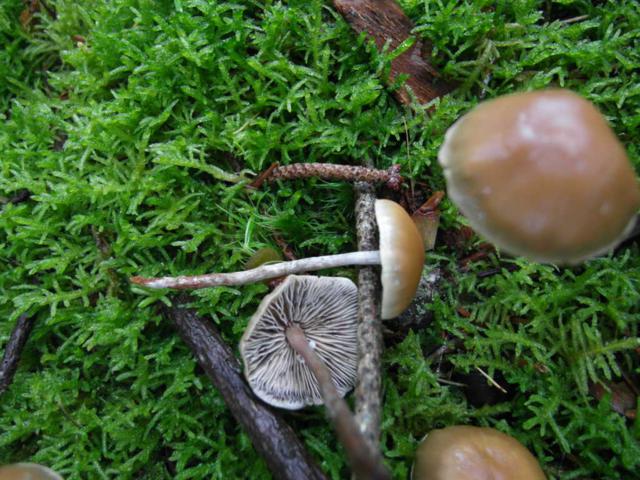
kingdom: Fungi
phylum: Basidiomycota
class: Agaricomycetes
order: Agaricales
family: Strophariaceae
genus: Hypholoma
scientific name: Hypholoma marginatum
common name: enlig svovlhat
